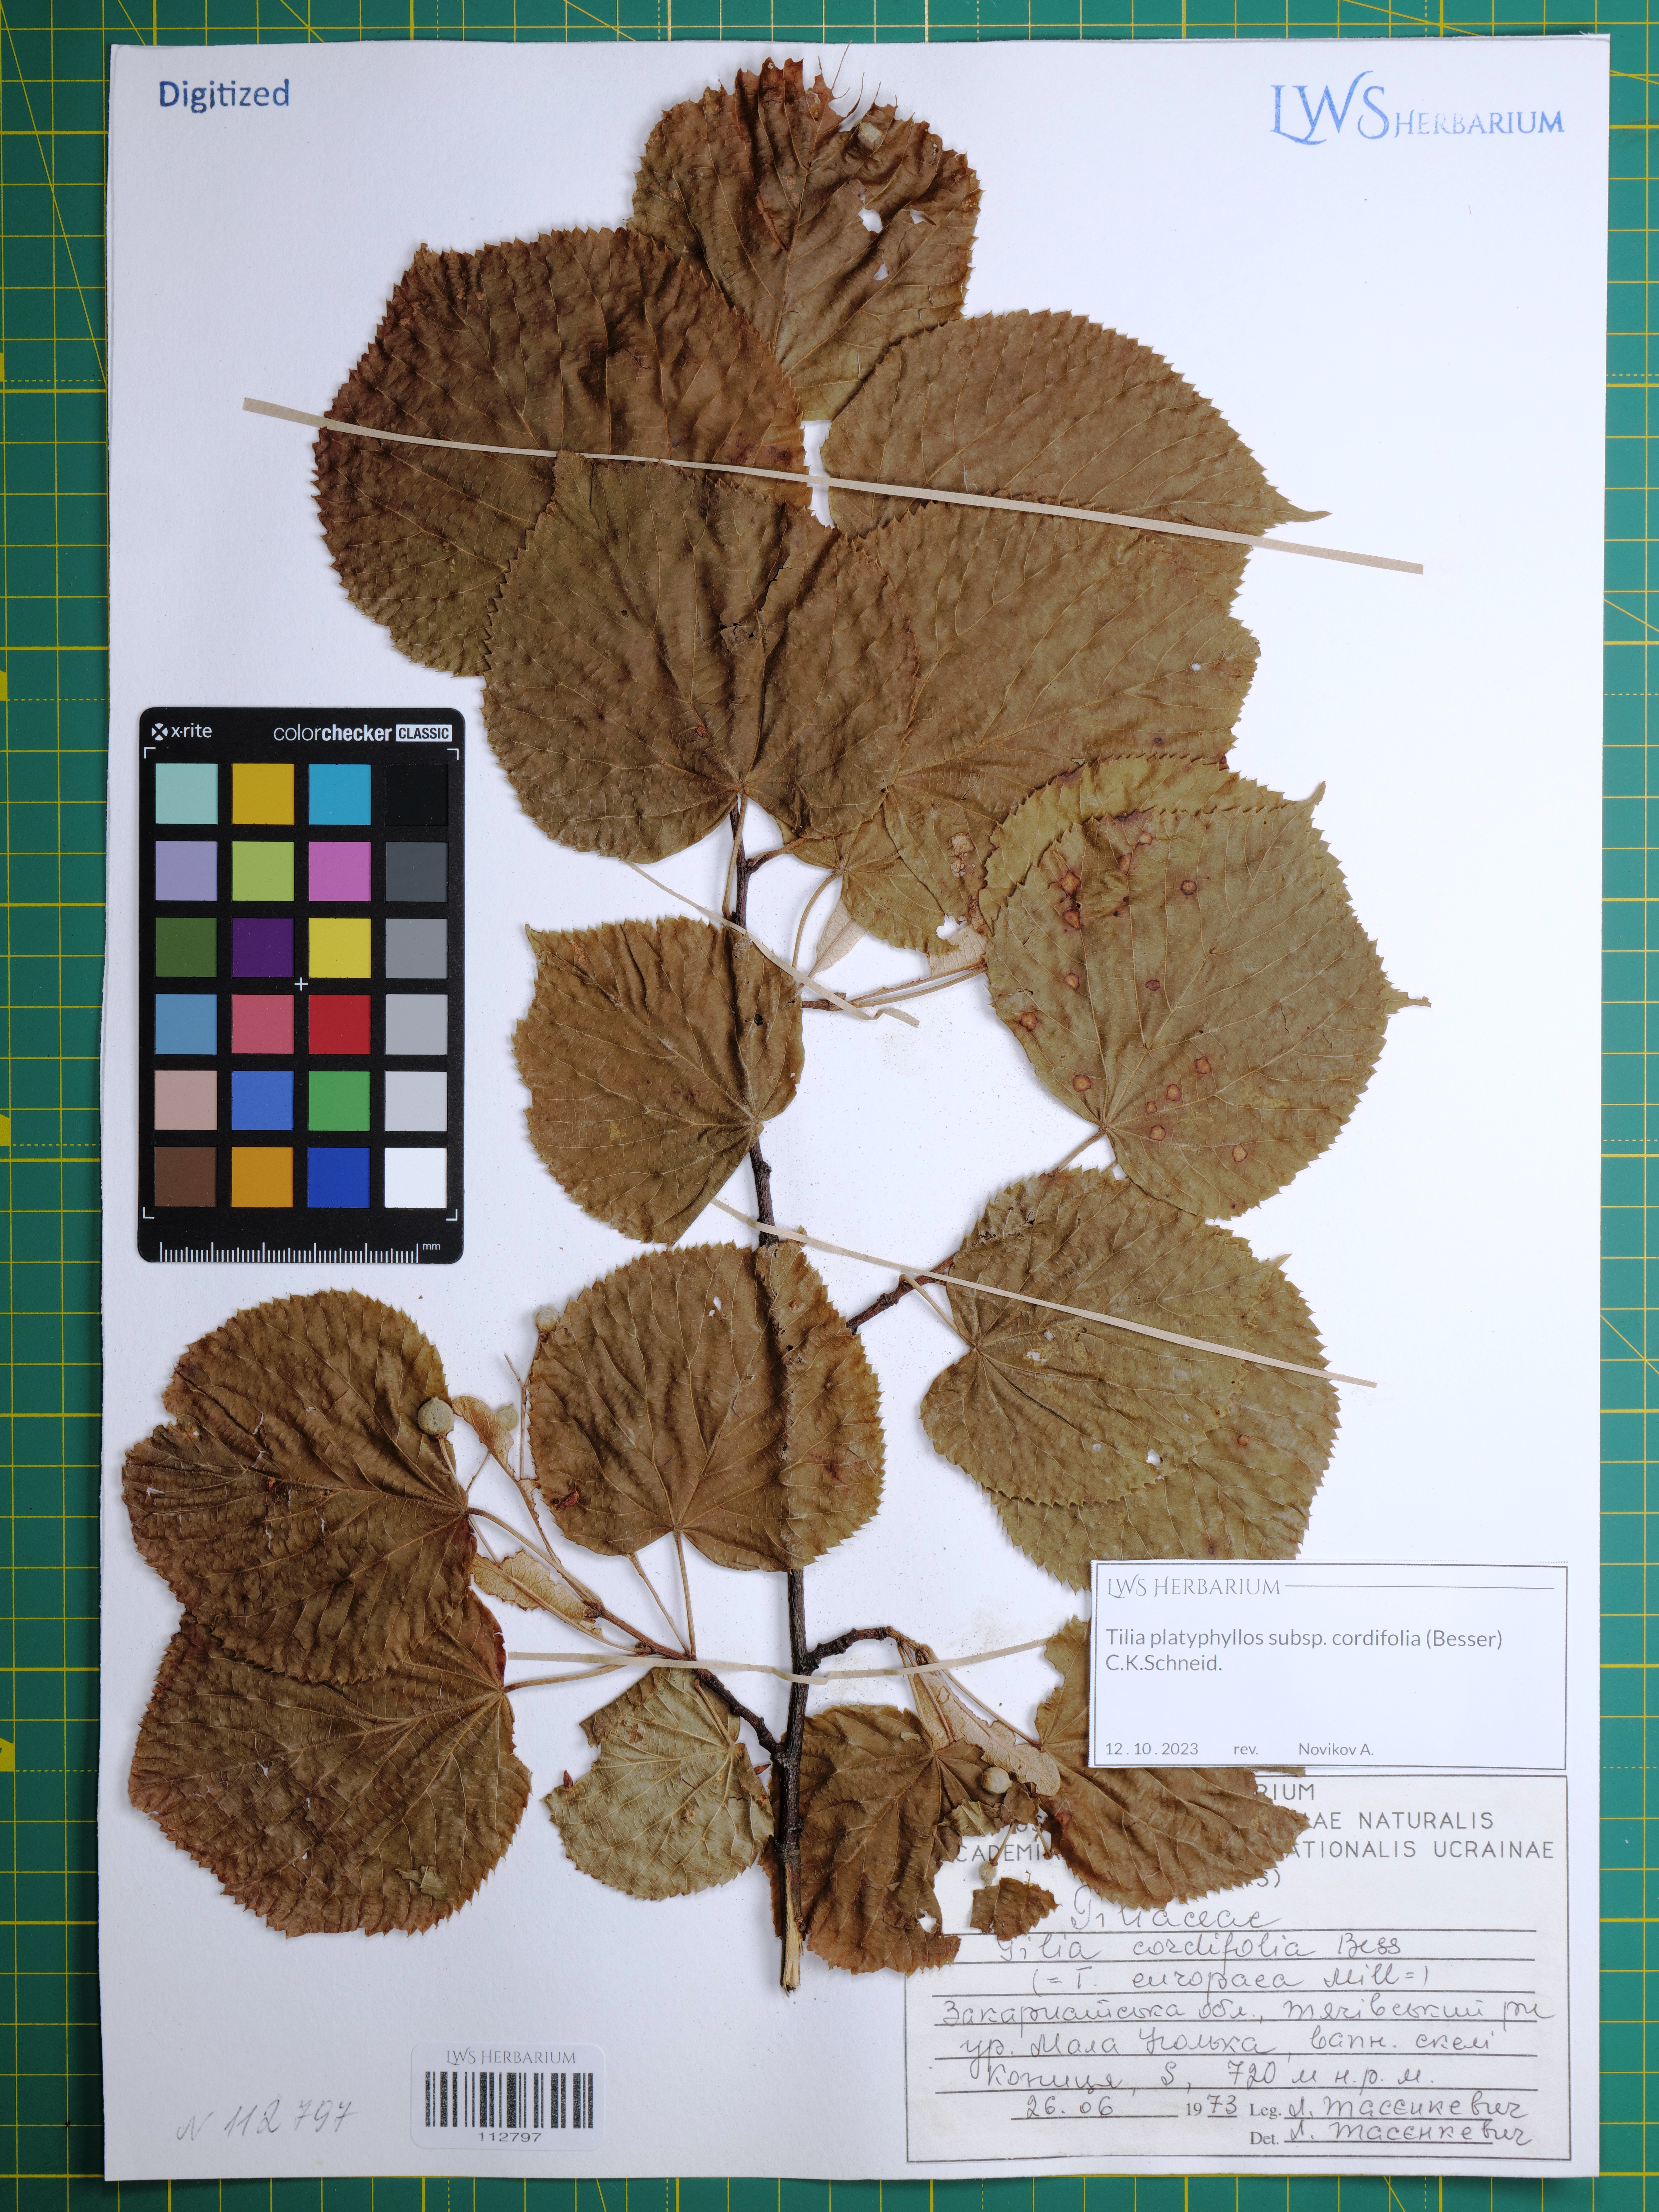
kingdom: Plantae
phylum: Tracheophyta
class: Magnoliopsida
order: Malvales
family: Malvaceae
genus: Tilia
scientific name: Tilia platyphyllos
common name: Large-leaved lime
